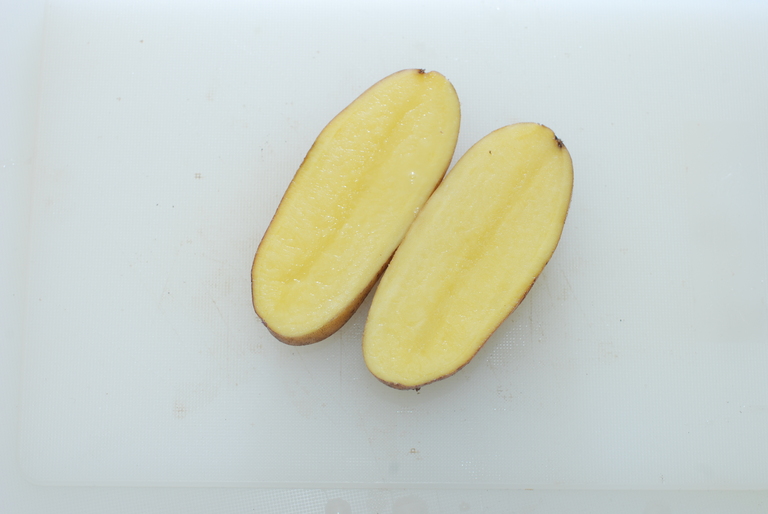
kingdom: Plantae
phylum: Tracheophyta
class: Magnoliopsida
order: Solanales
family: Solanaceae
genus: Solanum
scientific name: Solanum tuberosum
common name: Potato
